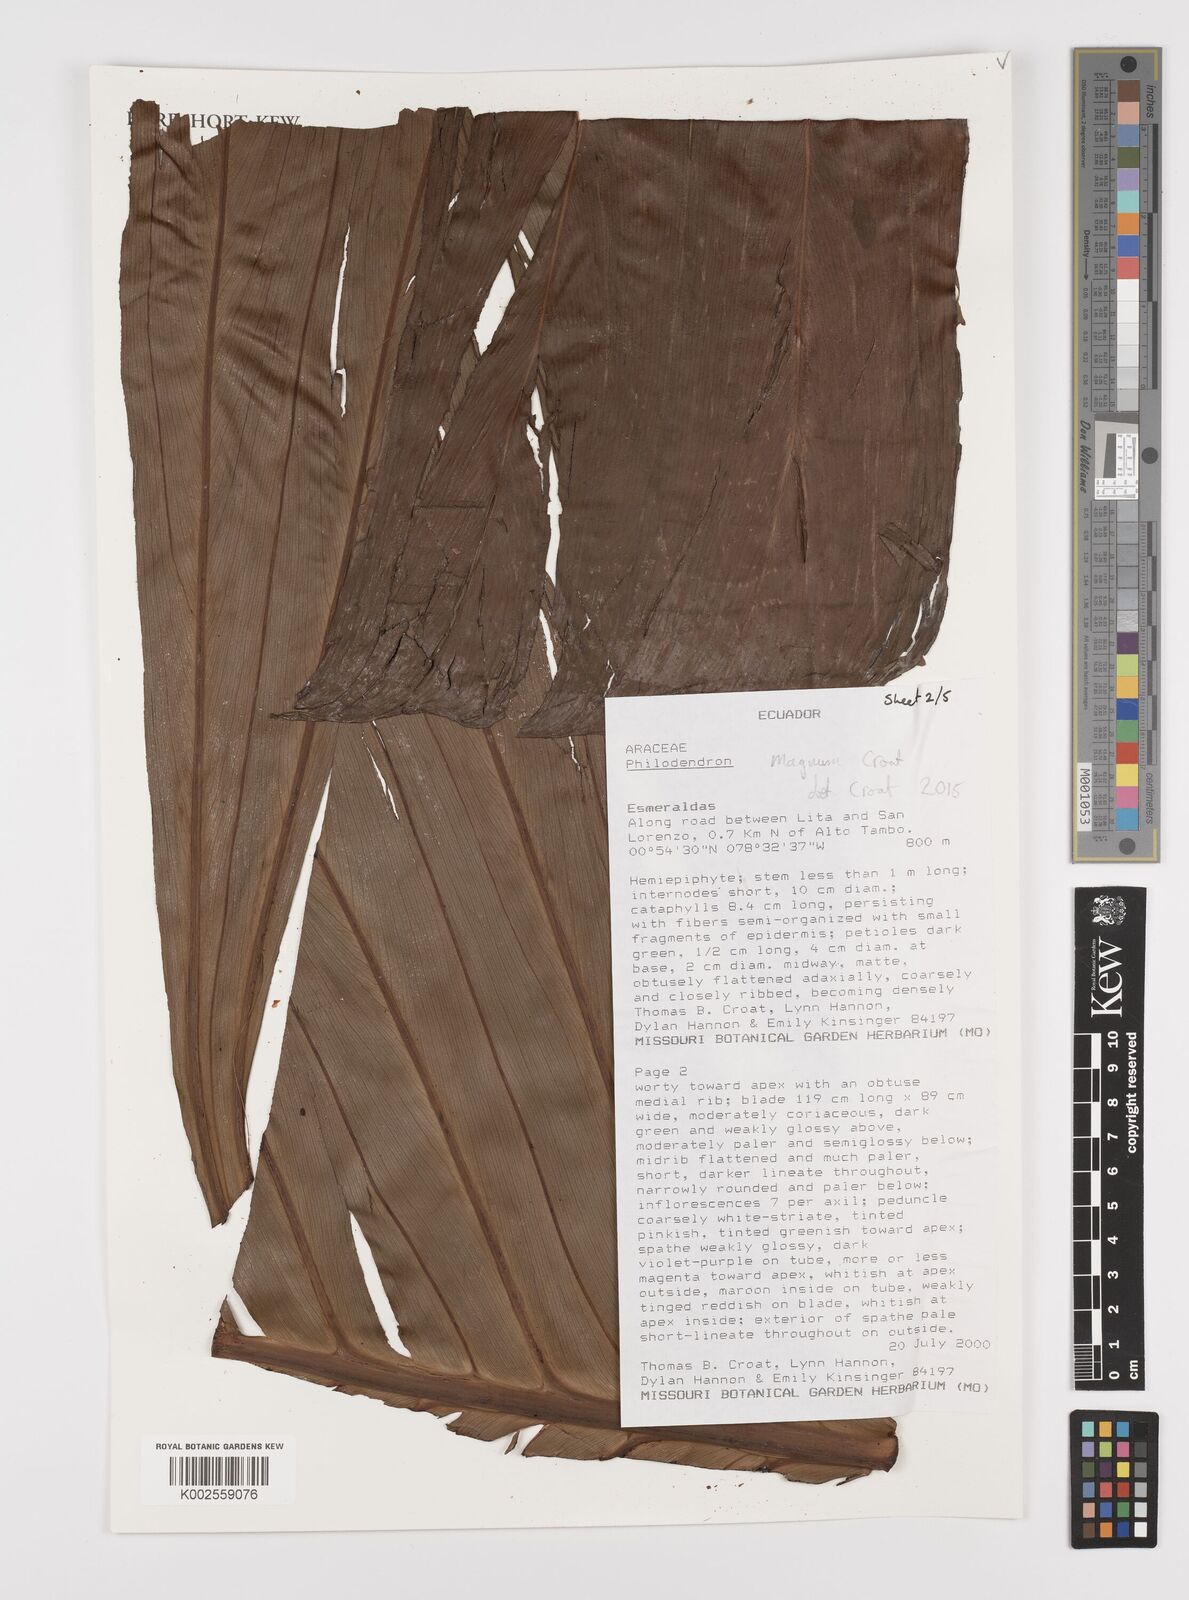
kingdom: Plantae
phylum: Tracheophyta
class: Liliopsida
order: Alismatales
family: Araceae
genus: Philodendron
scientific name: Philodendron magnum
